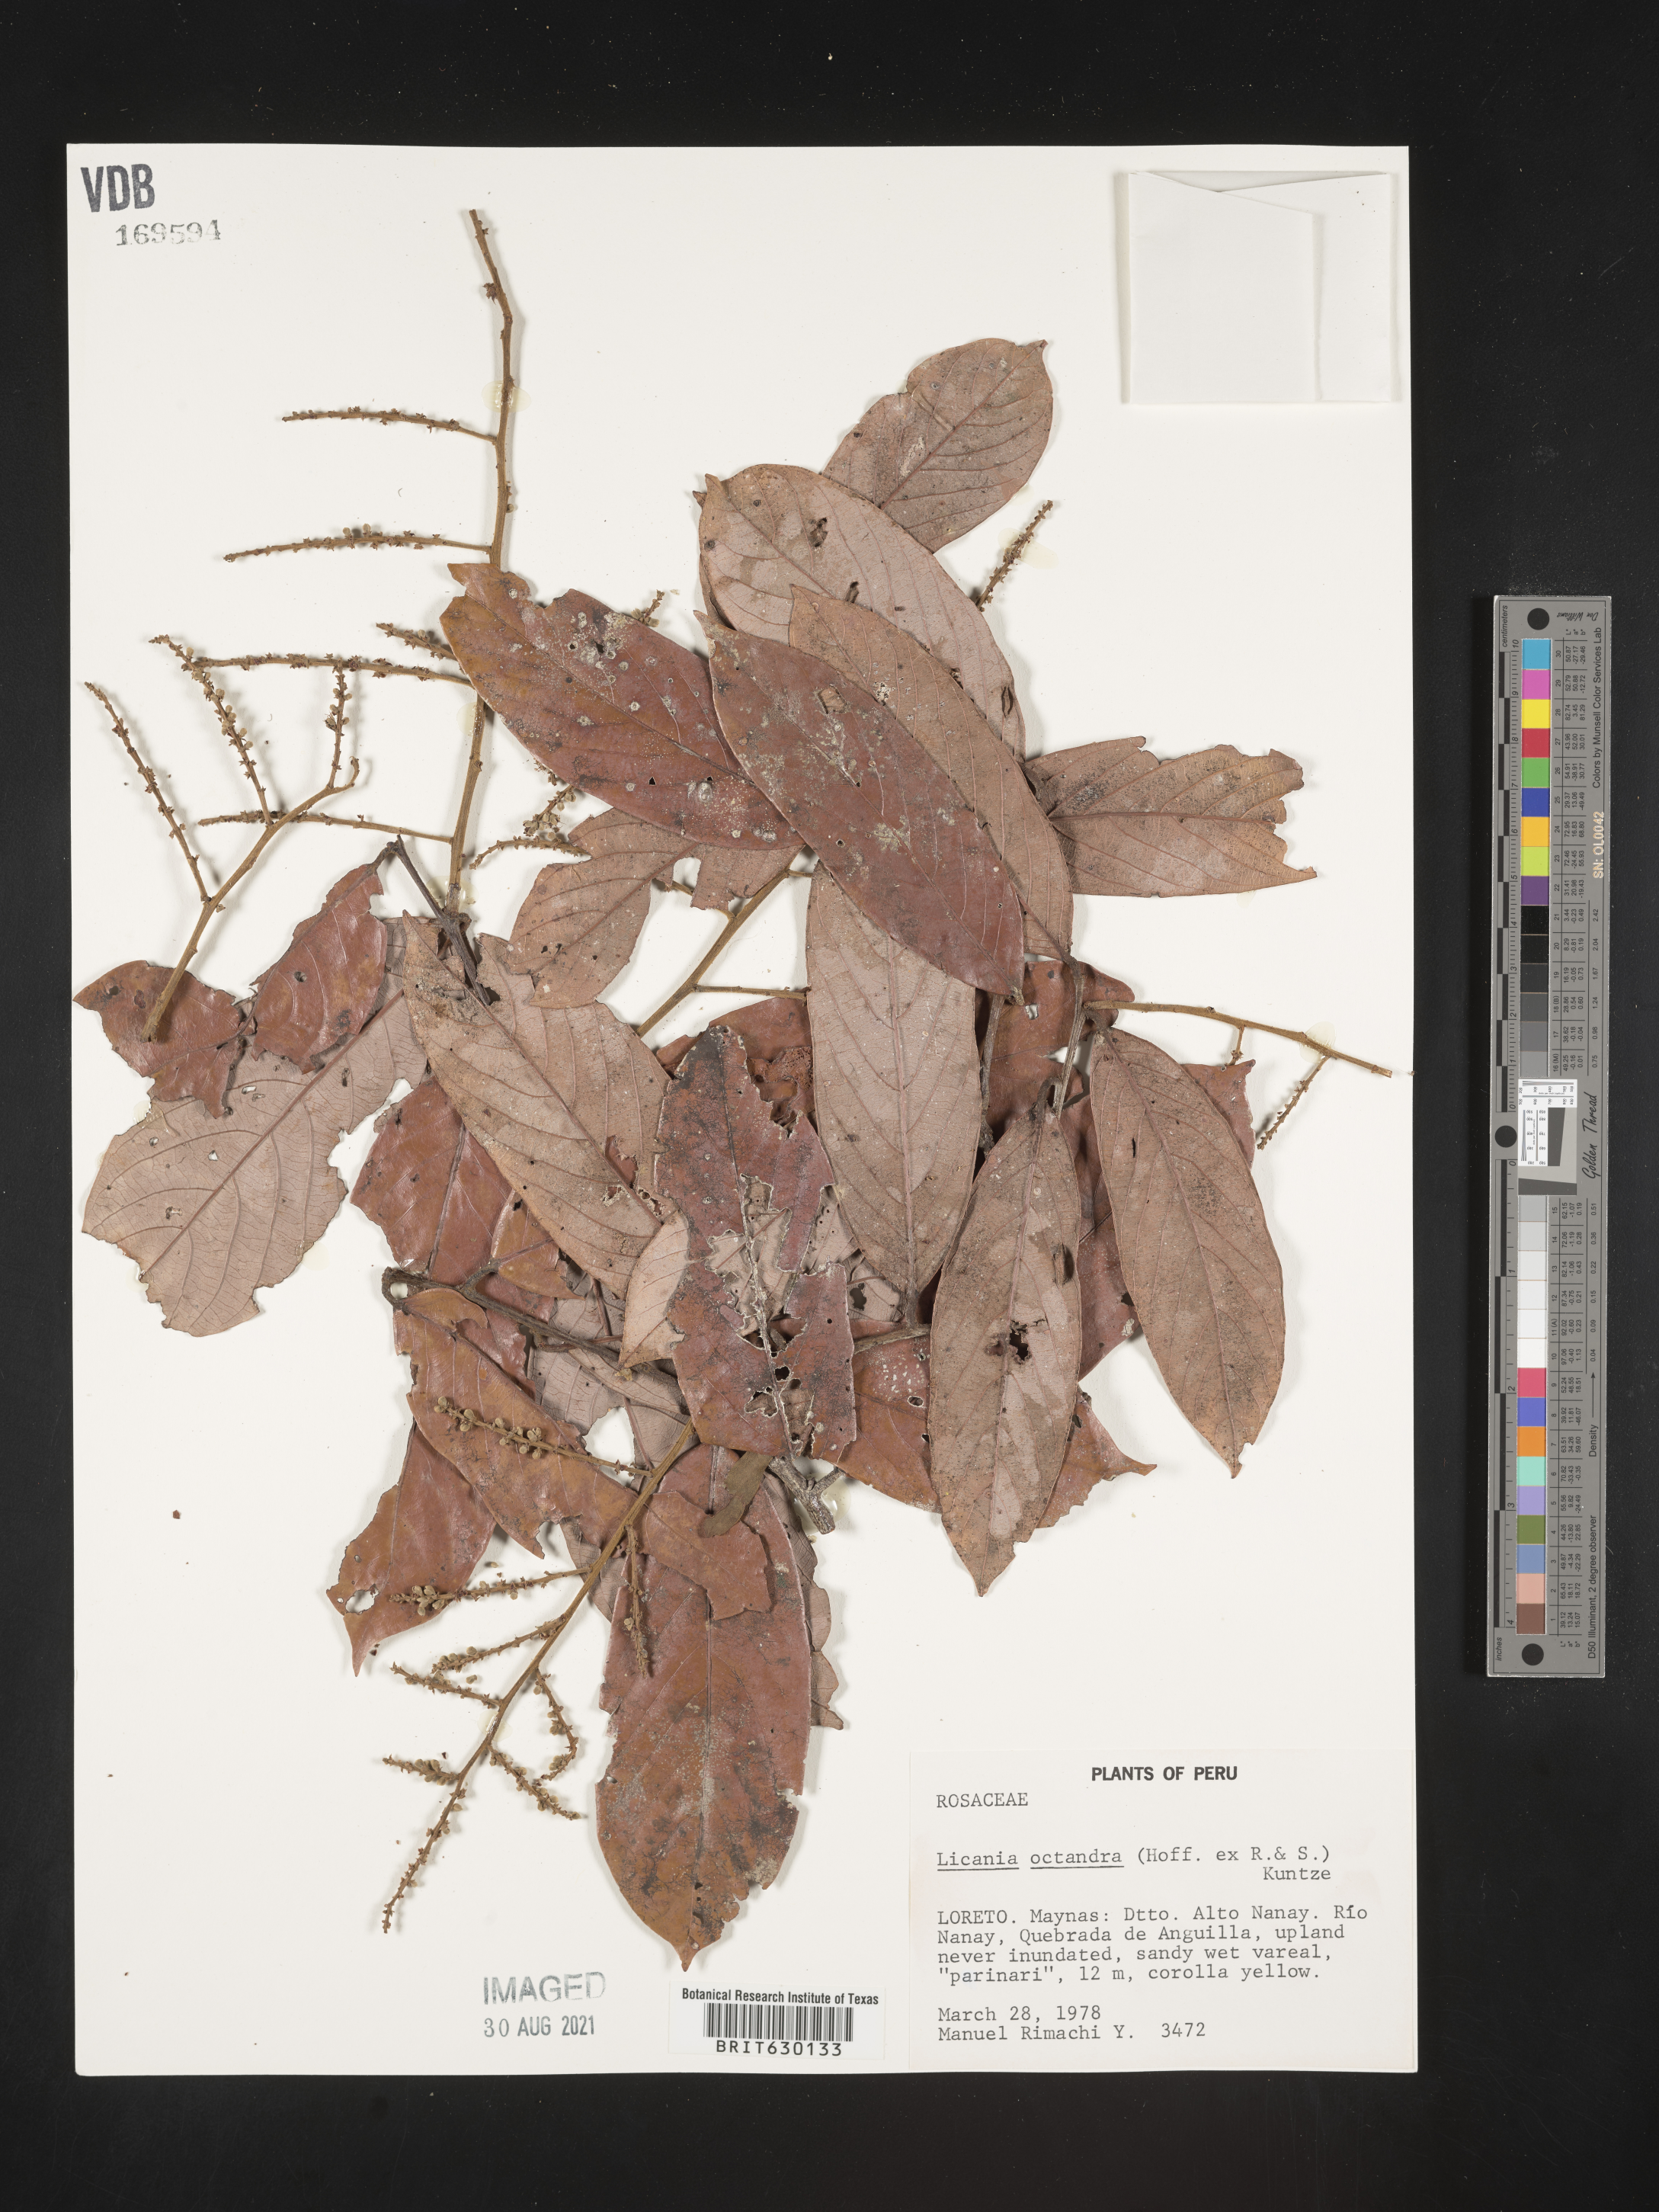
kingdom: Plantae
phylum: Tracheophyta
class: Magnoliopsida
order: Malpighiales
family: Chrysobalanaceae
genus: Leptobalanus
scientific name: Leptobalanus octandrus
